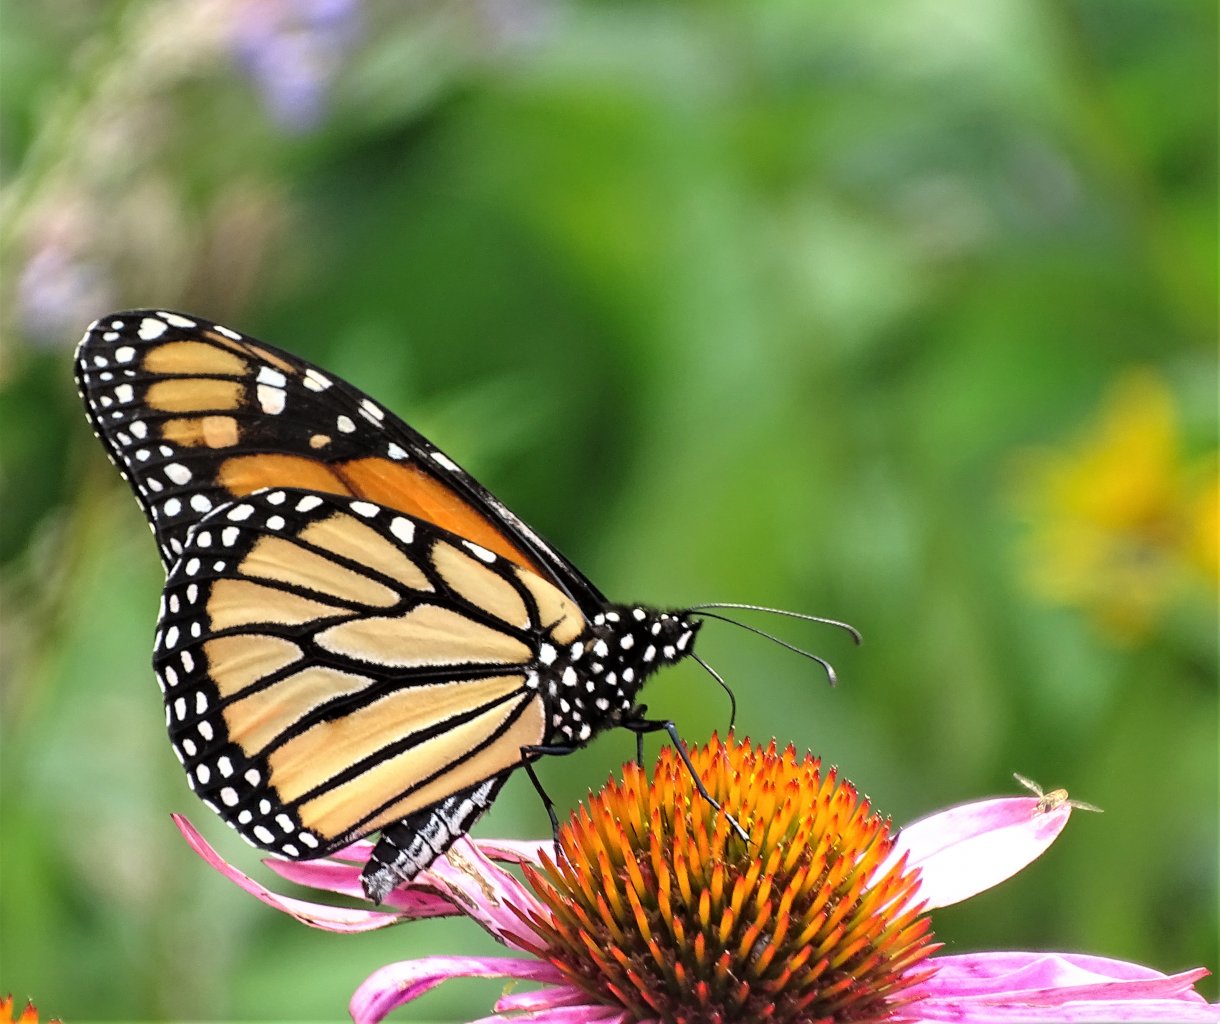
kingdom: Animalia
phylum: Arthropoda
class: Insecta
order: Lepidoptera
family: Nymphalidae
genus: Danaus
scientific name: Danaus plexippus
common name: Monarch
